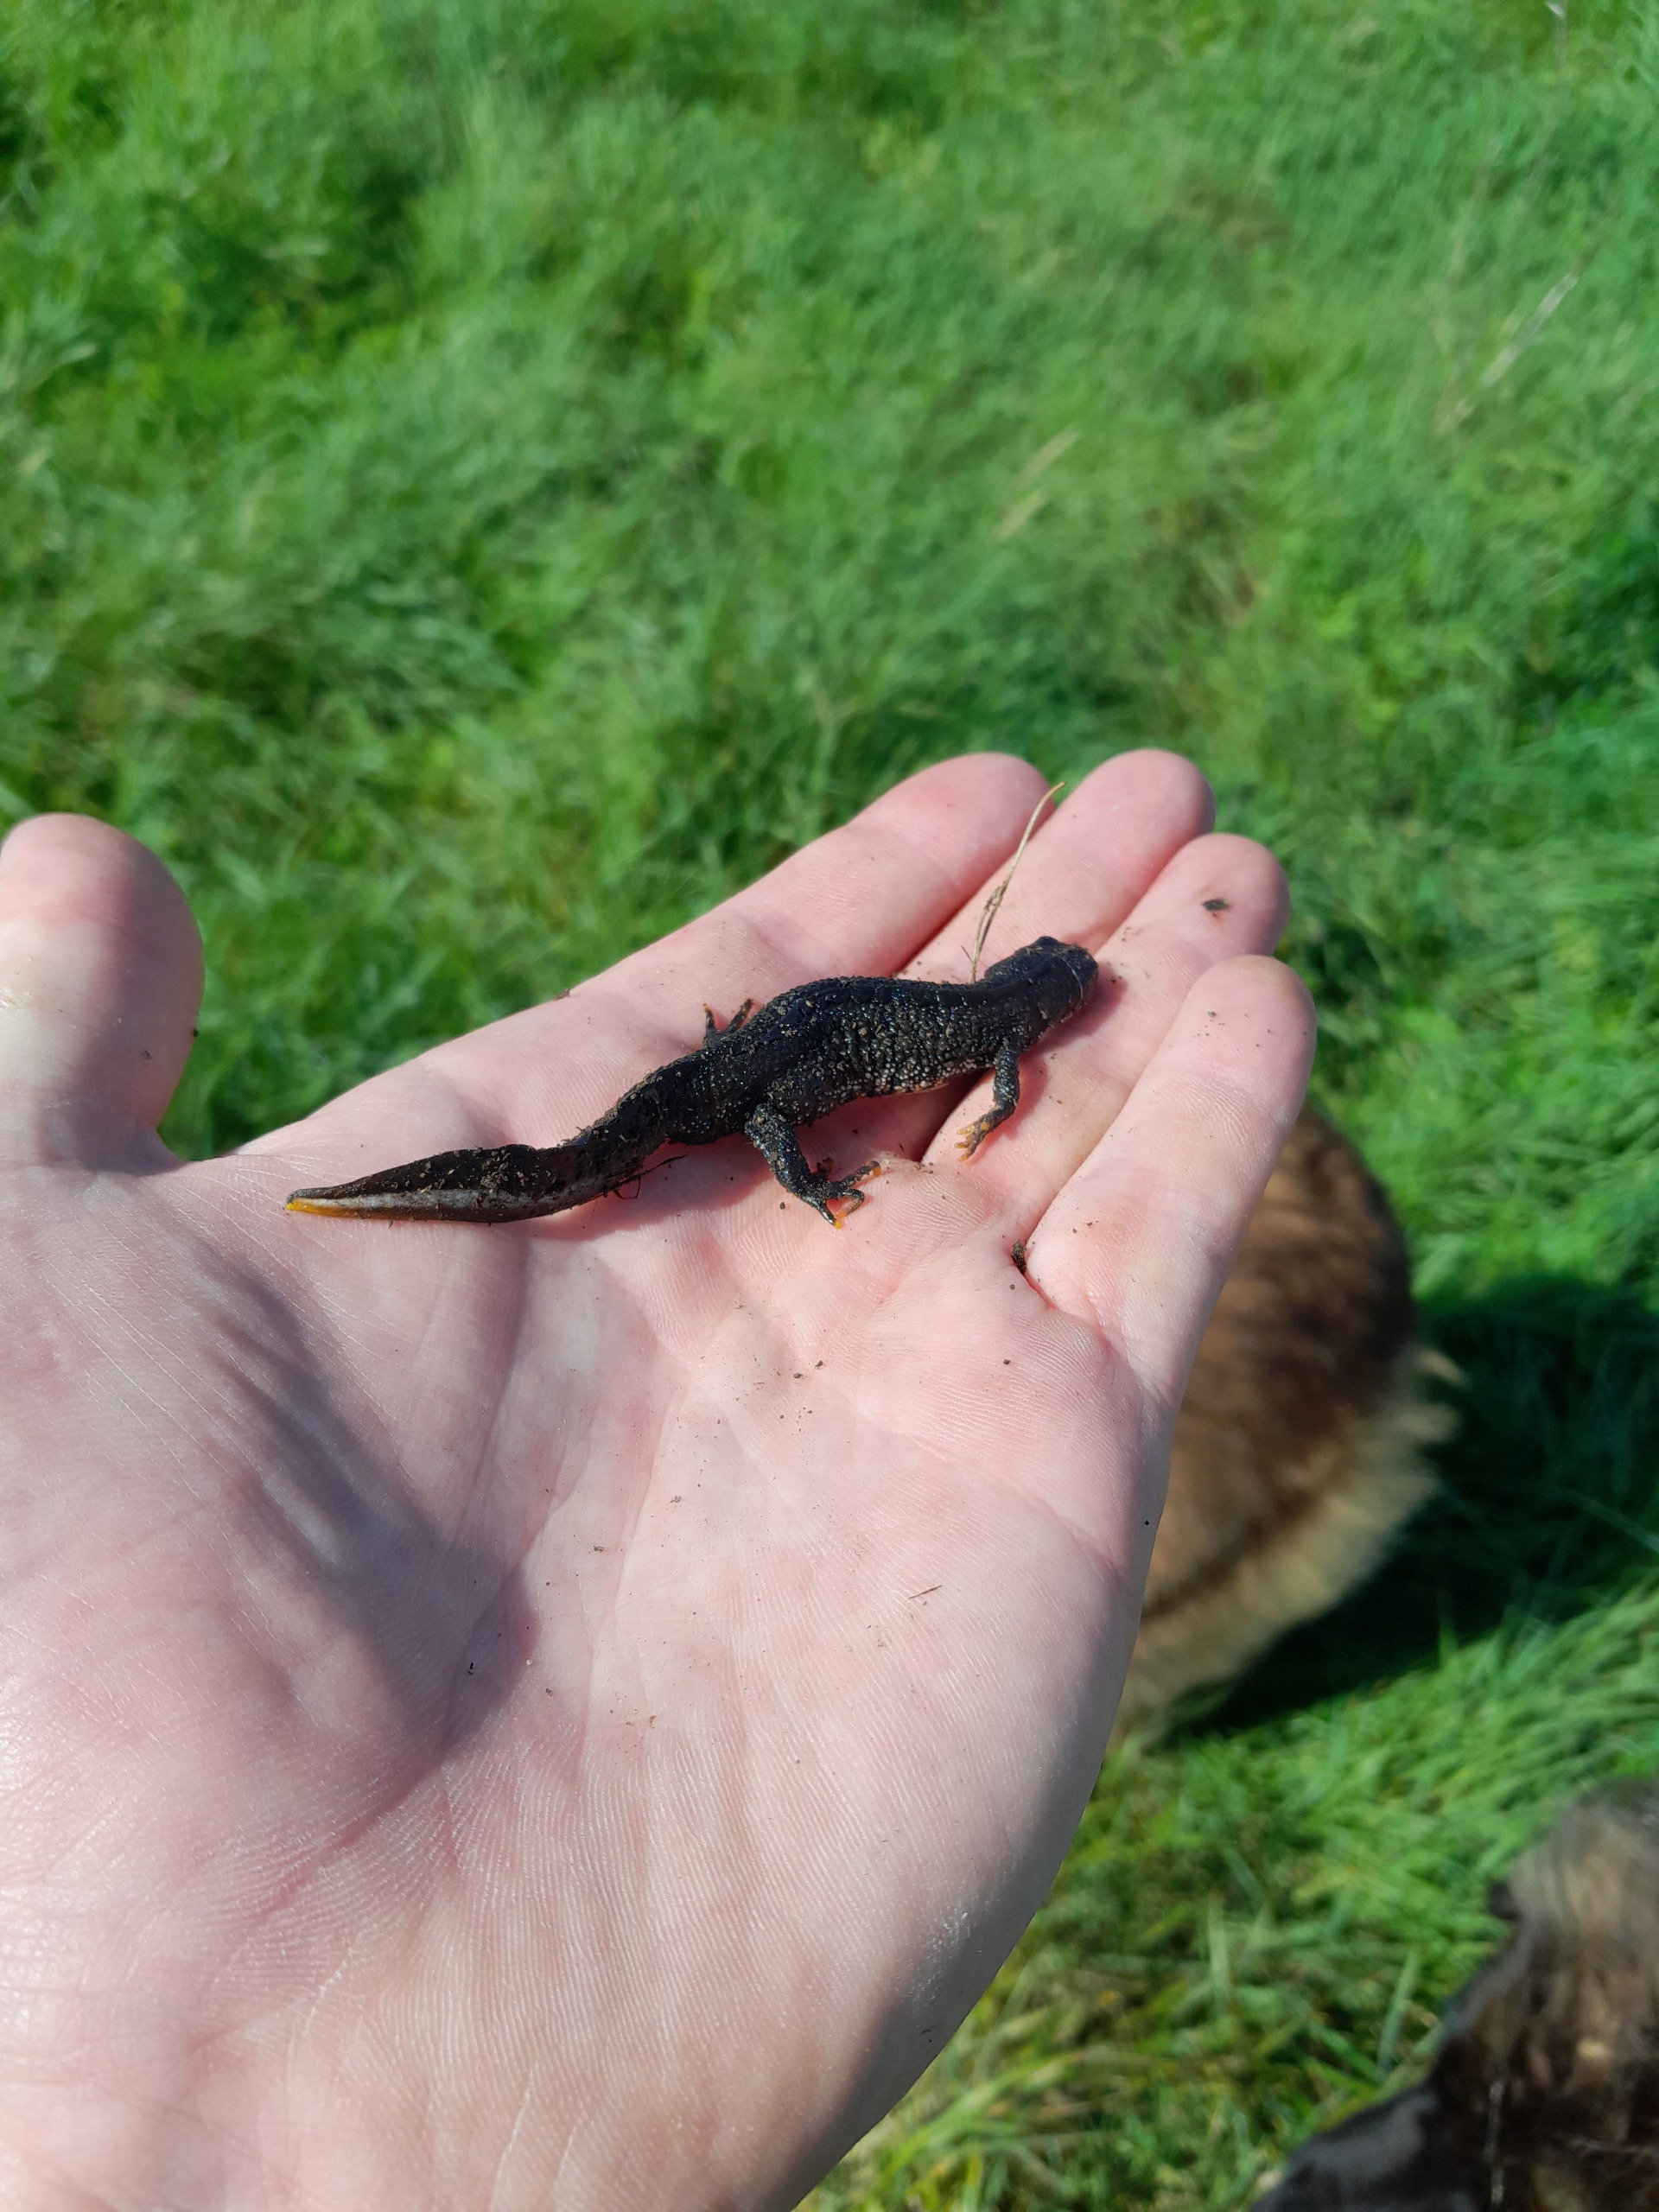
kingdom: Animalia
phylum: Chordata
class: Amphibia
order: Caudata
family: Salamandridae
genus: Triturus
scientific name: Triturus cristatus
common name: Stor vandsalamander
